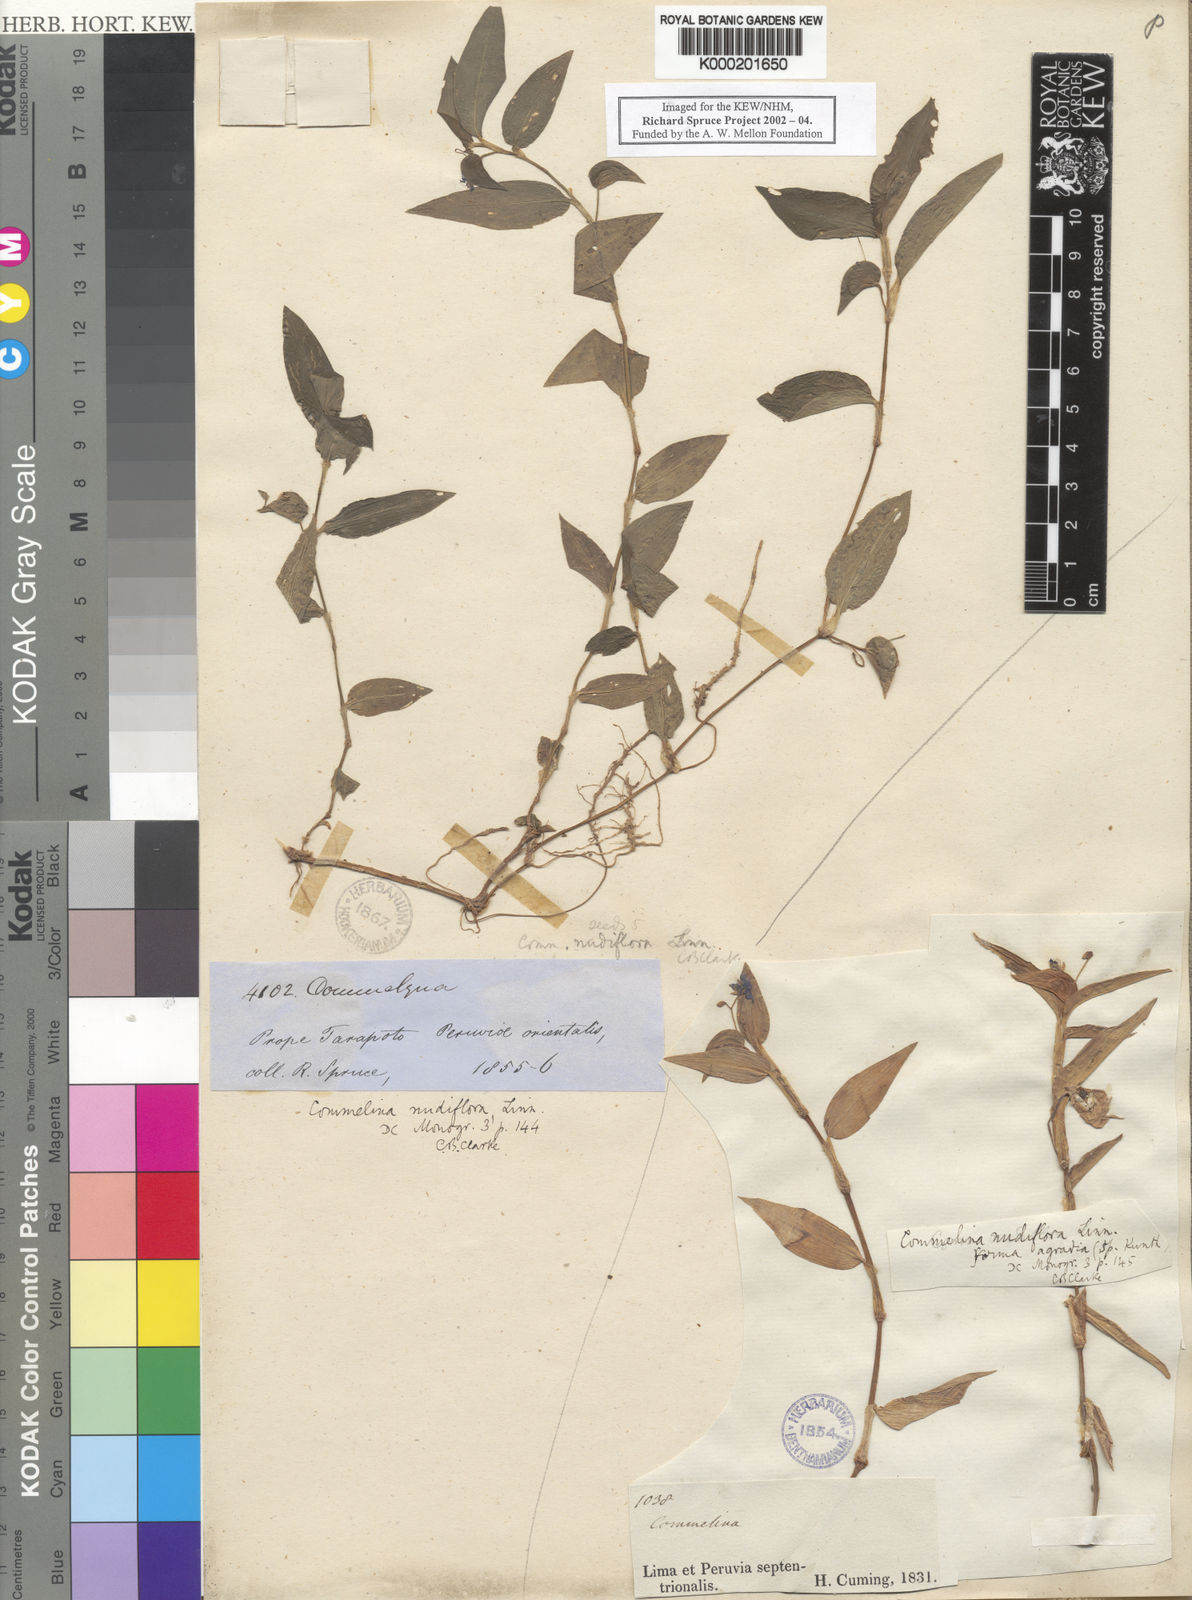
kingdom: Plantae
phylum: Tracheophyta
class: Liliopsida
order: Commelinales
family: Commelinaceae
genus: Commelina
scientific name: Commelina diffusa
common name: Climbing dayflower
